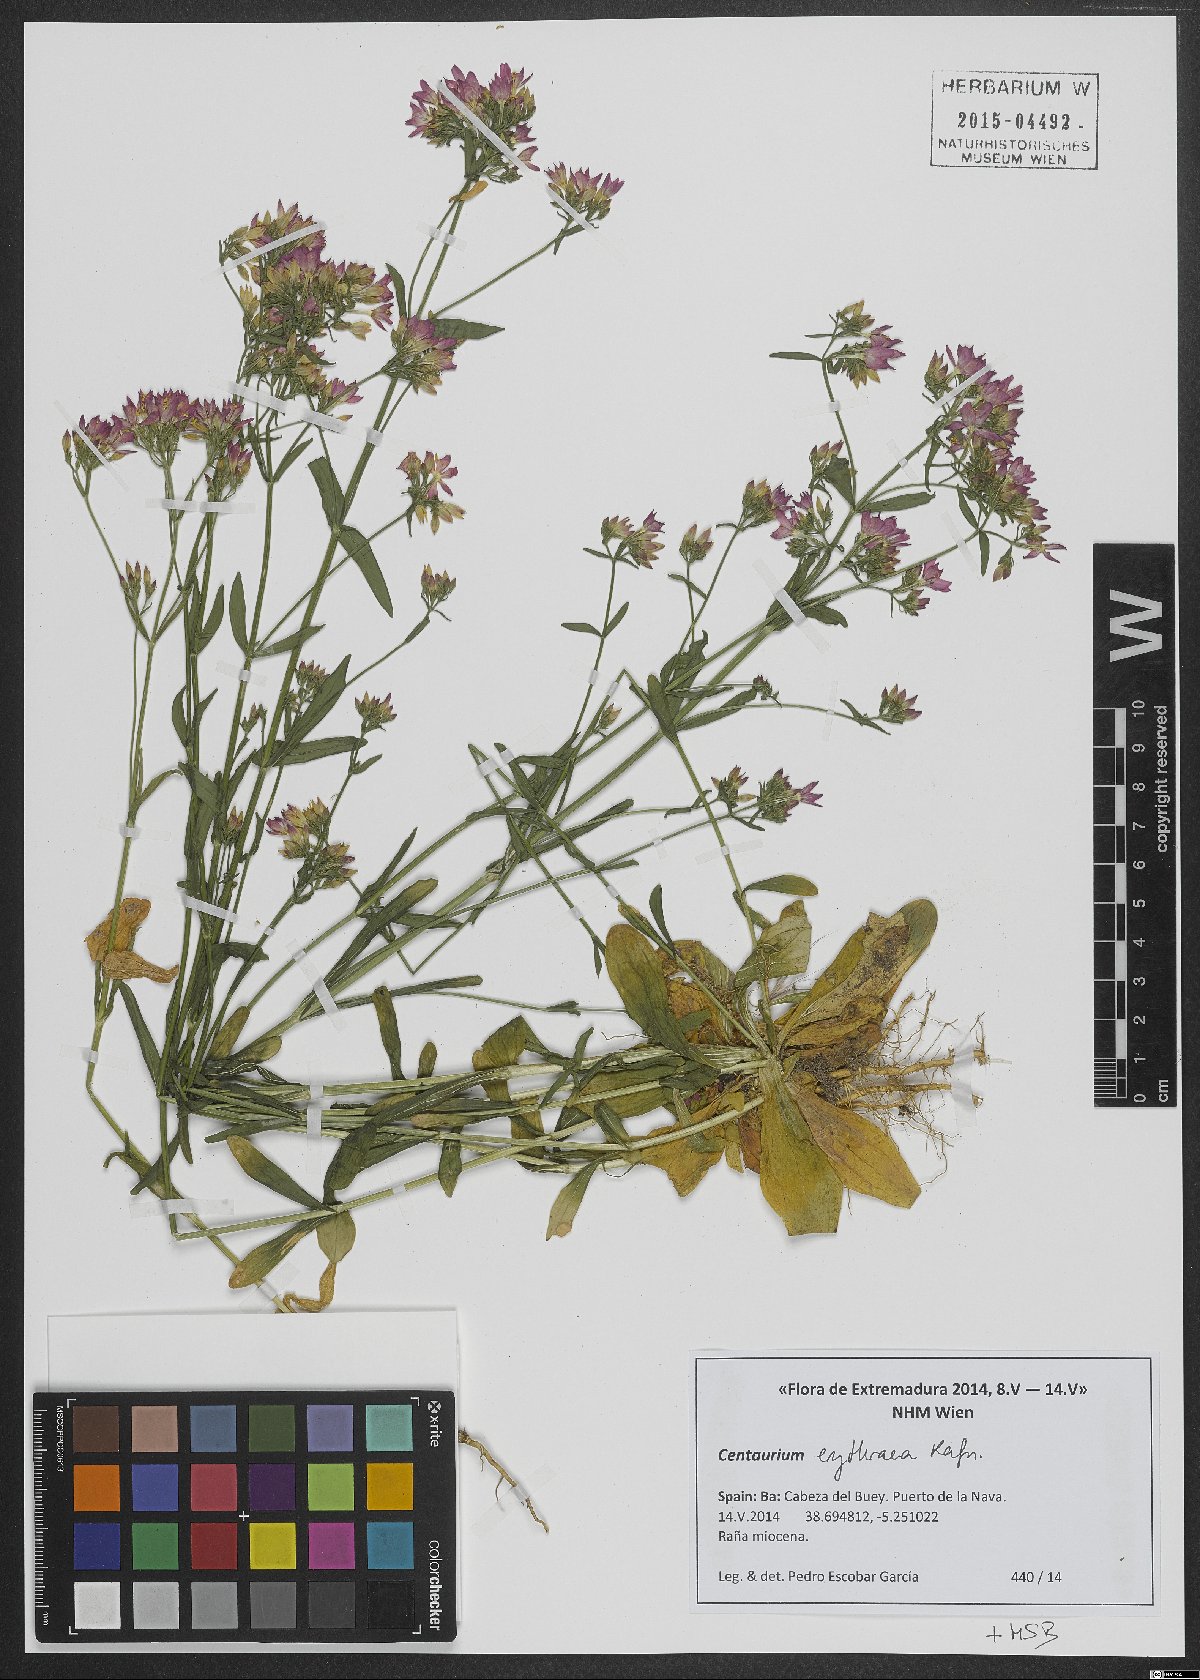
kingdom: Plantae
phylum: Tracheophyta
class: Magnoliopsida
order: Gentianales
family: Gentianaceae
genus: Centaurium
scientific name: Centaurium erythraea
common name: Common centaury
